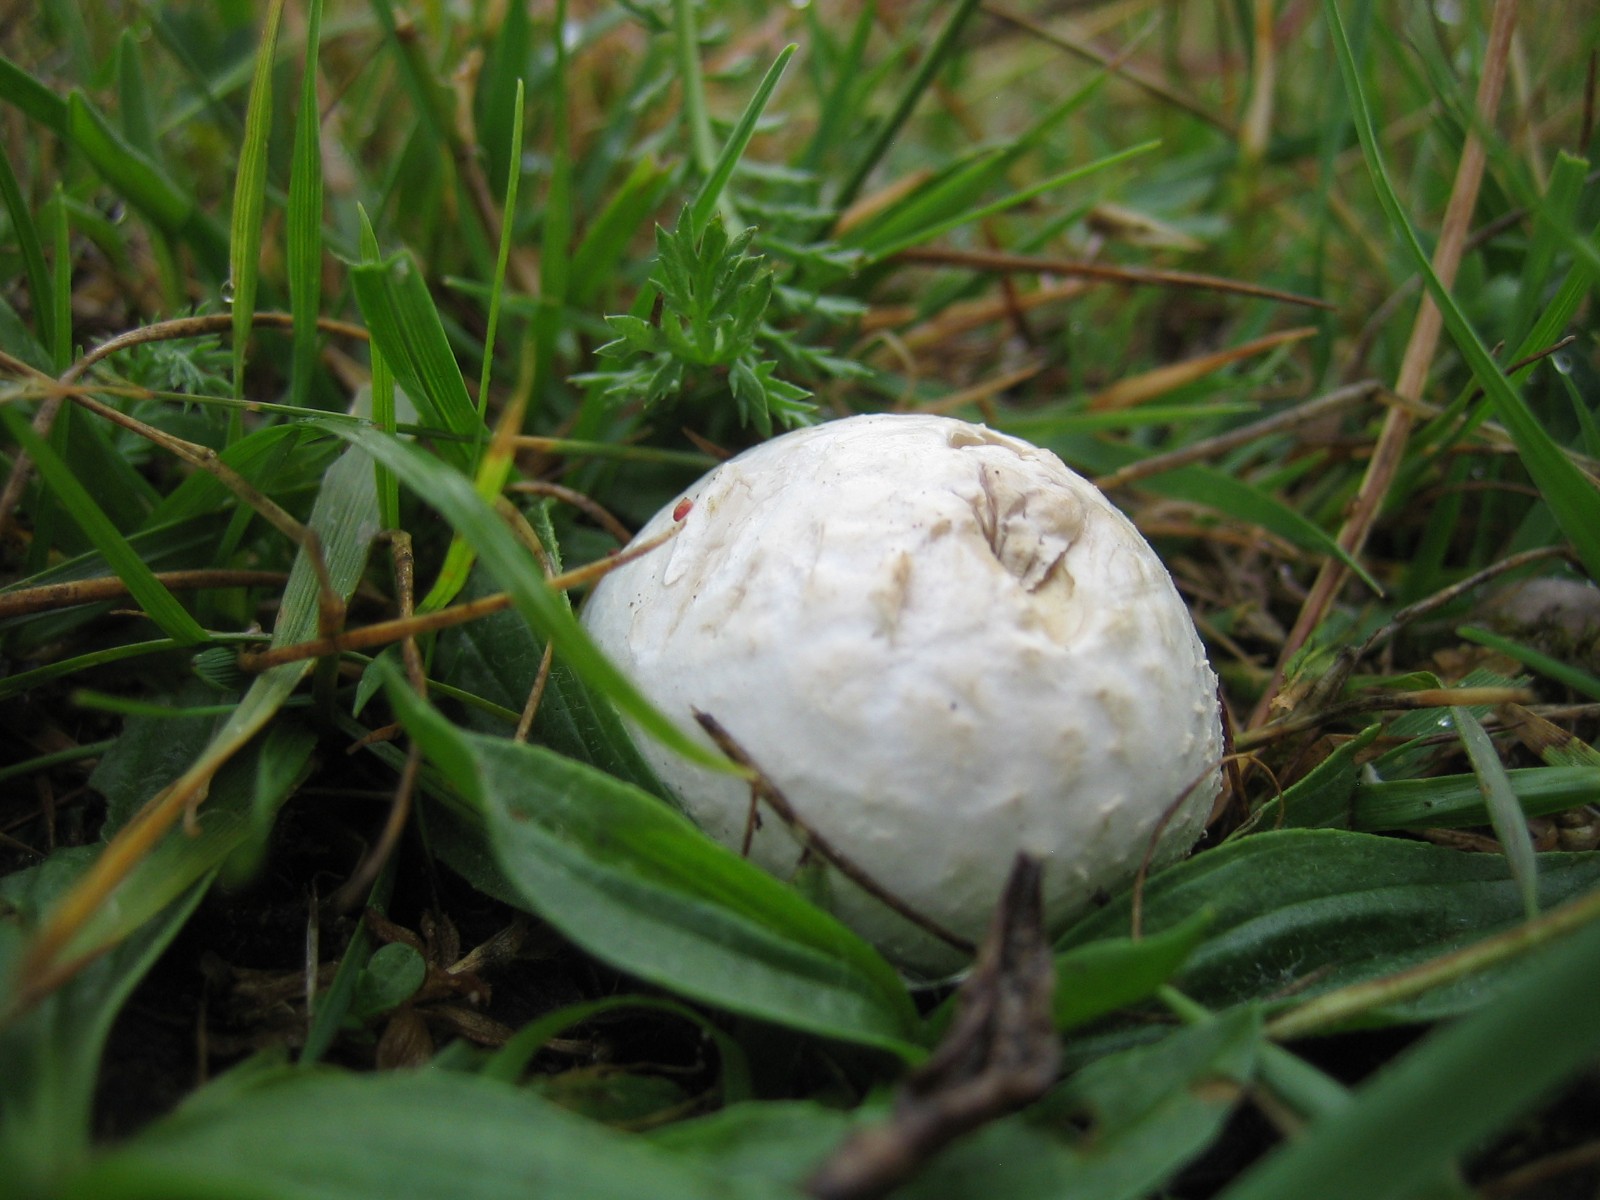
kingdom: Fungi
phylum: Basidiomycota
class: Agaricomycetes
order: Agaricales
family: Lycoperdaceae
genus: Bovista
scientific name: Bovista
